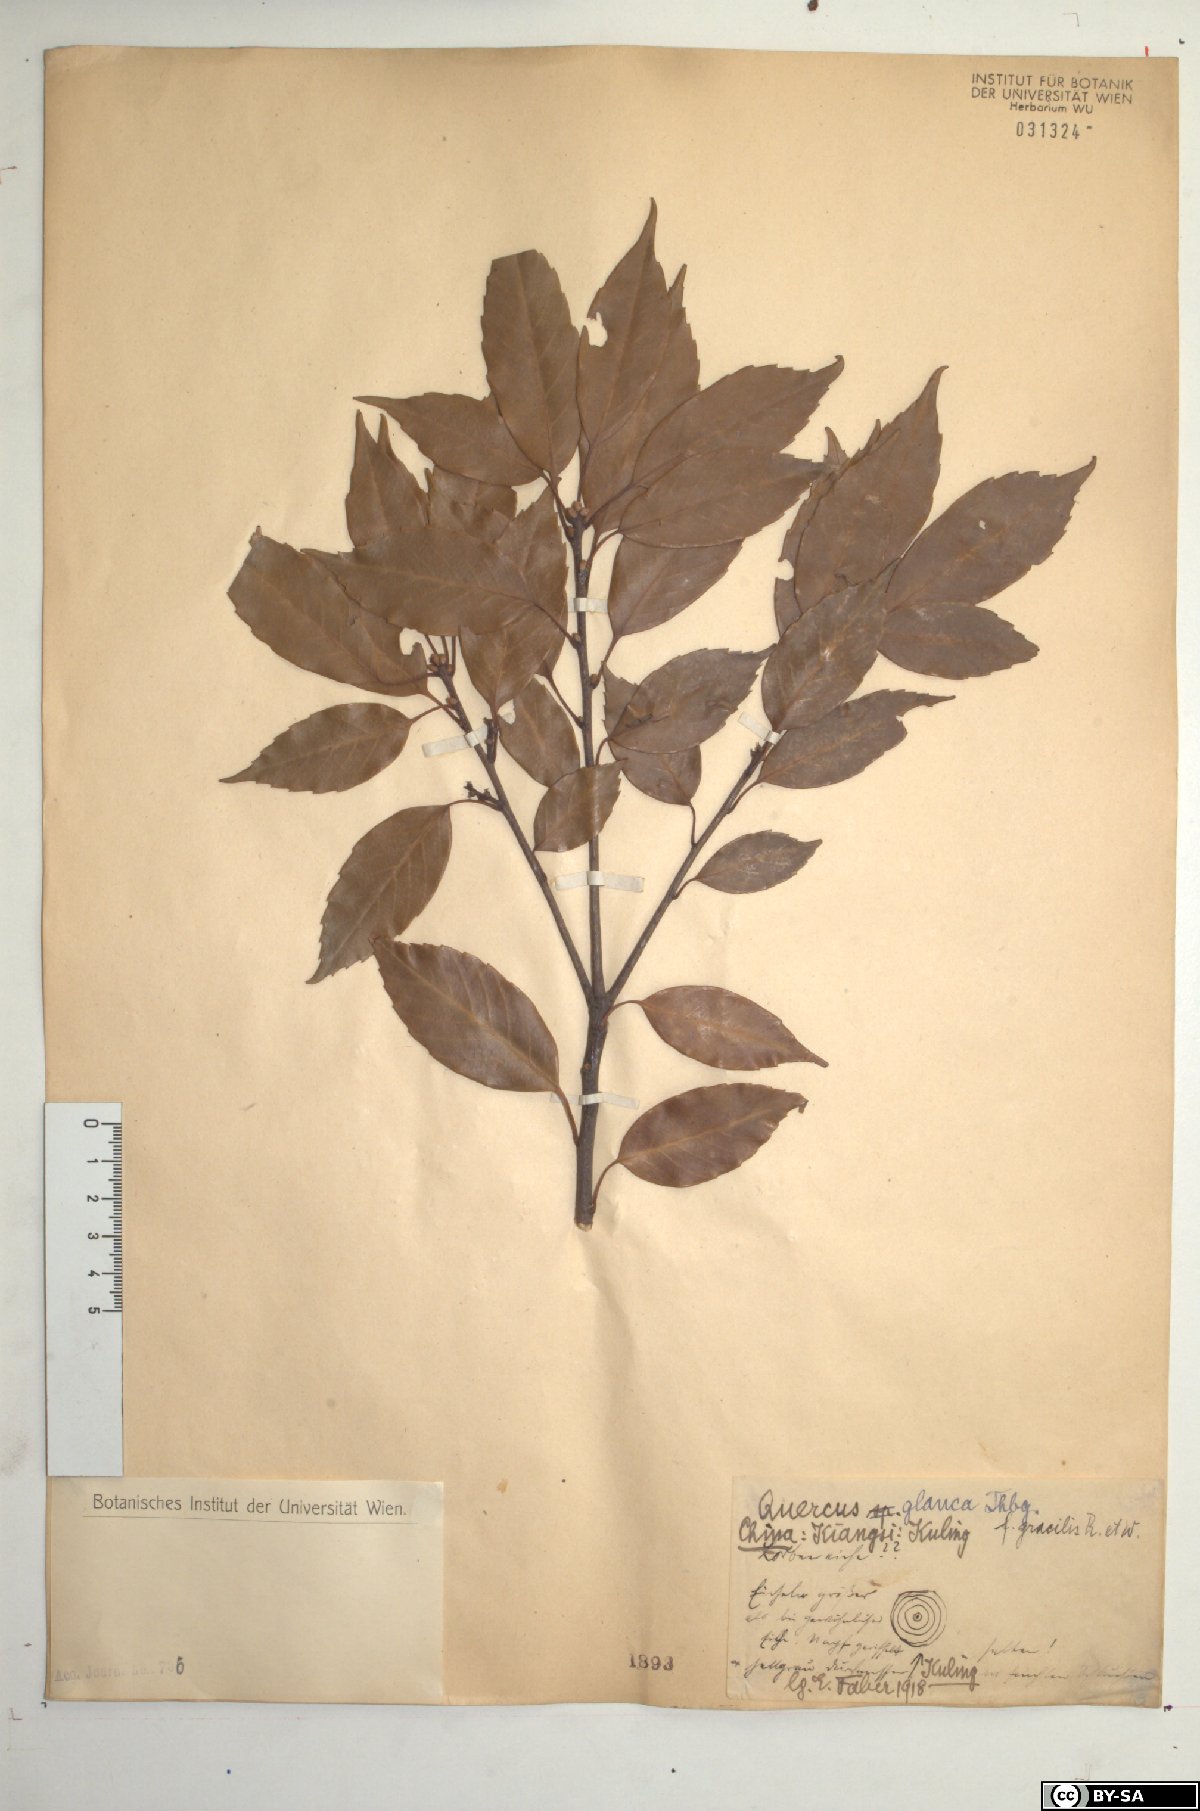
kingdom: Plantae
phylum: Tracheophyta
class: Magnoliopsida
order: Fagales
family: Fagaceae
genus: Quercus
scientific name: Quercus glauca
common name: Ring-cup oak
